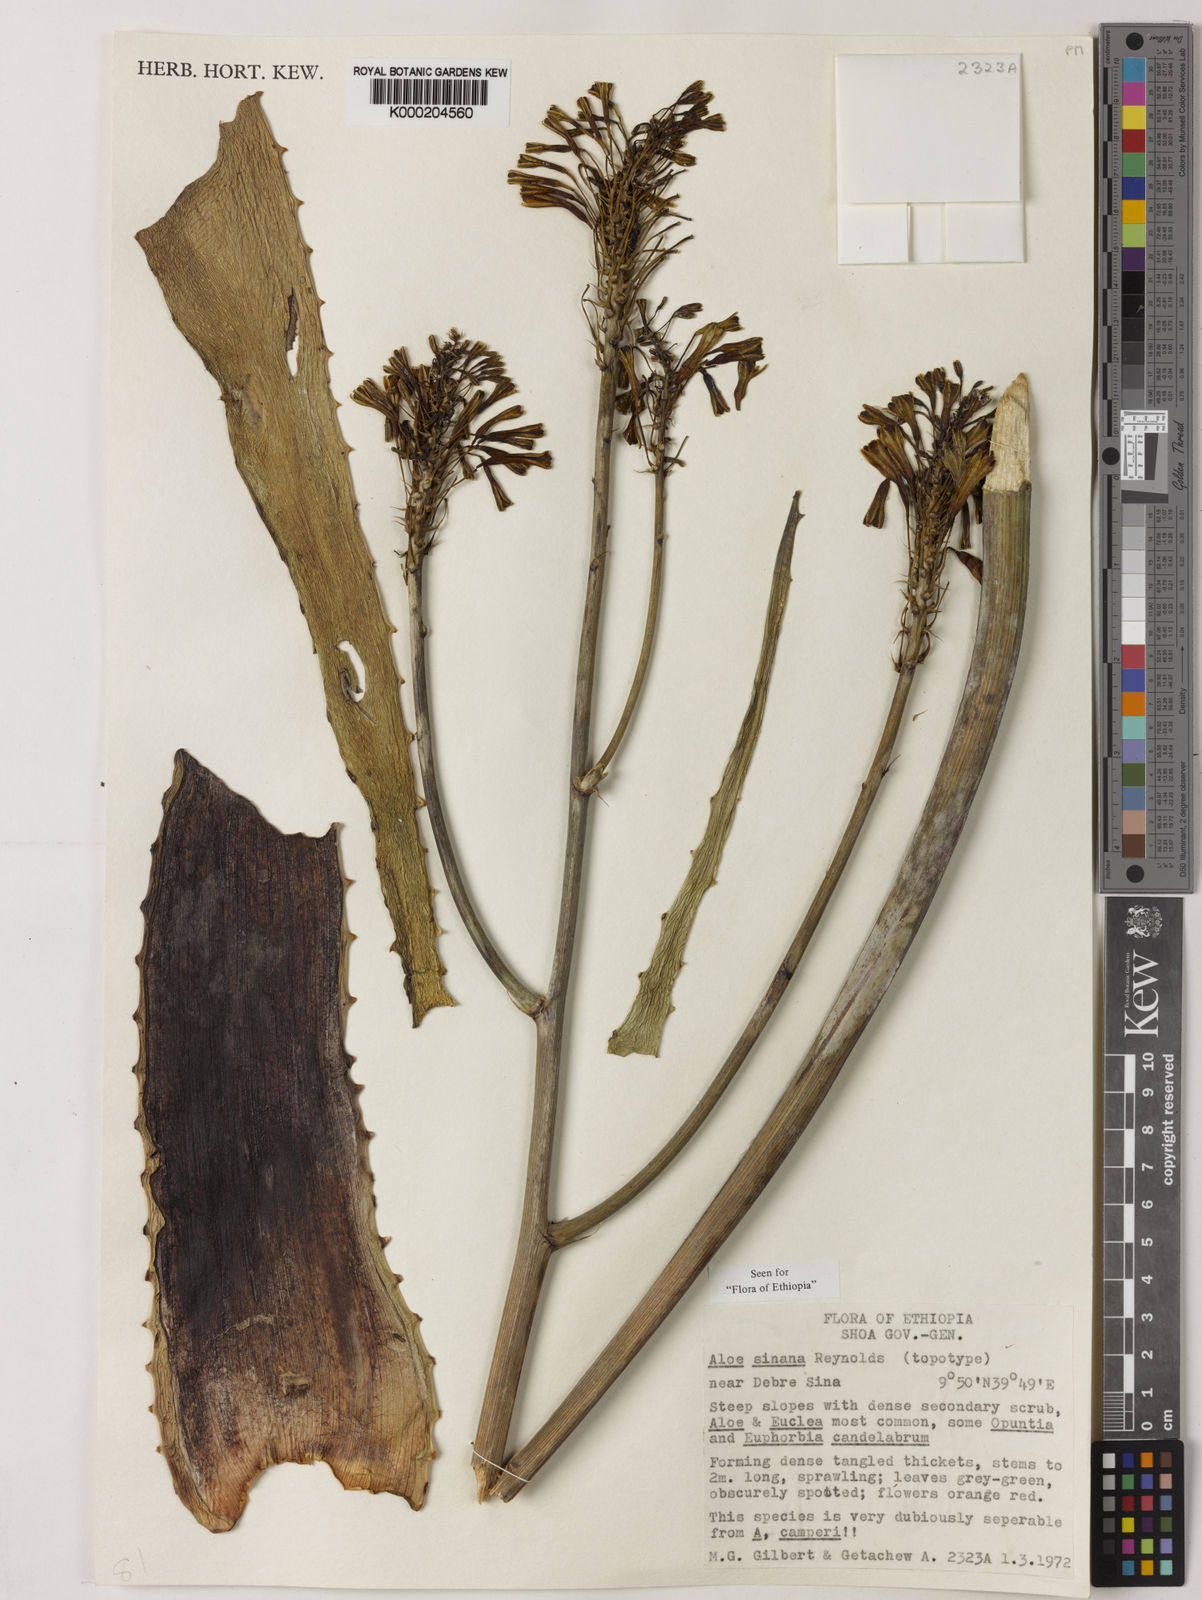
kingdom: Plantae
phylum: Tracheophyta
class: Liliopsida
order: Asparagales
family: Asphodelaceae
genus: Aloe
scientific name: Aloe sinana
